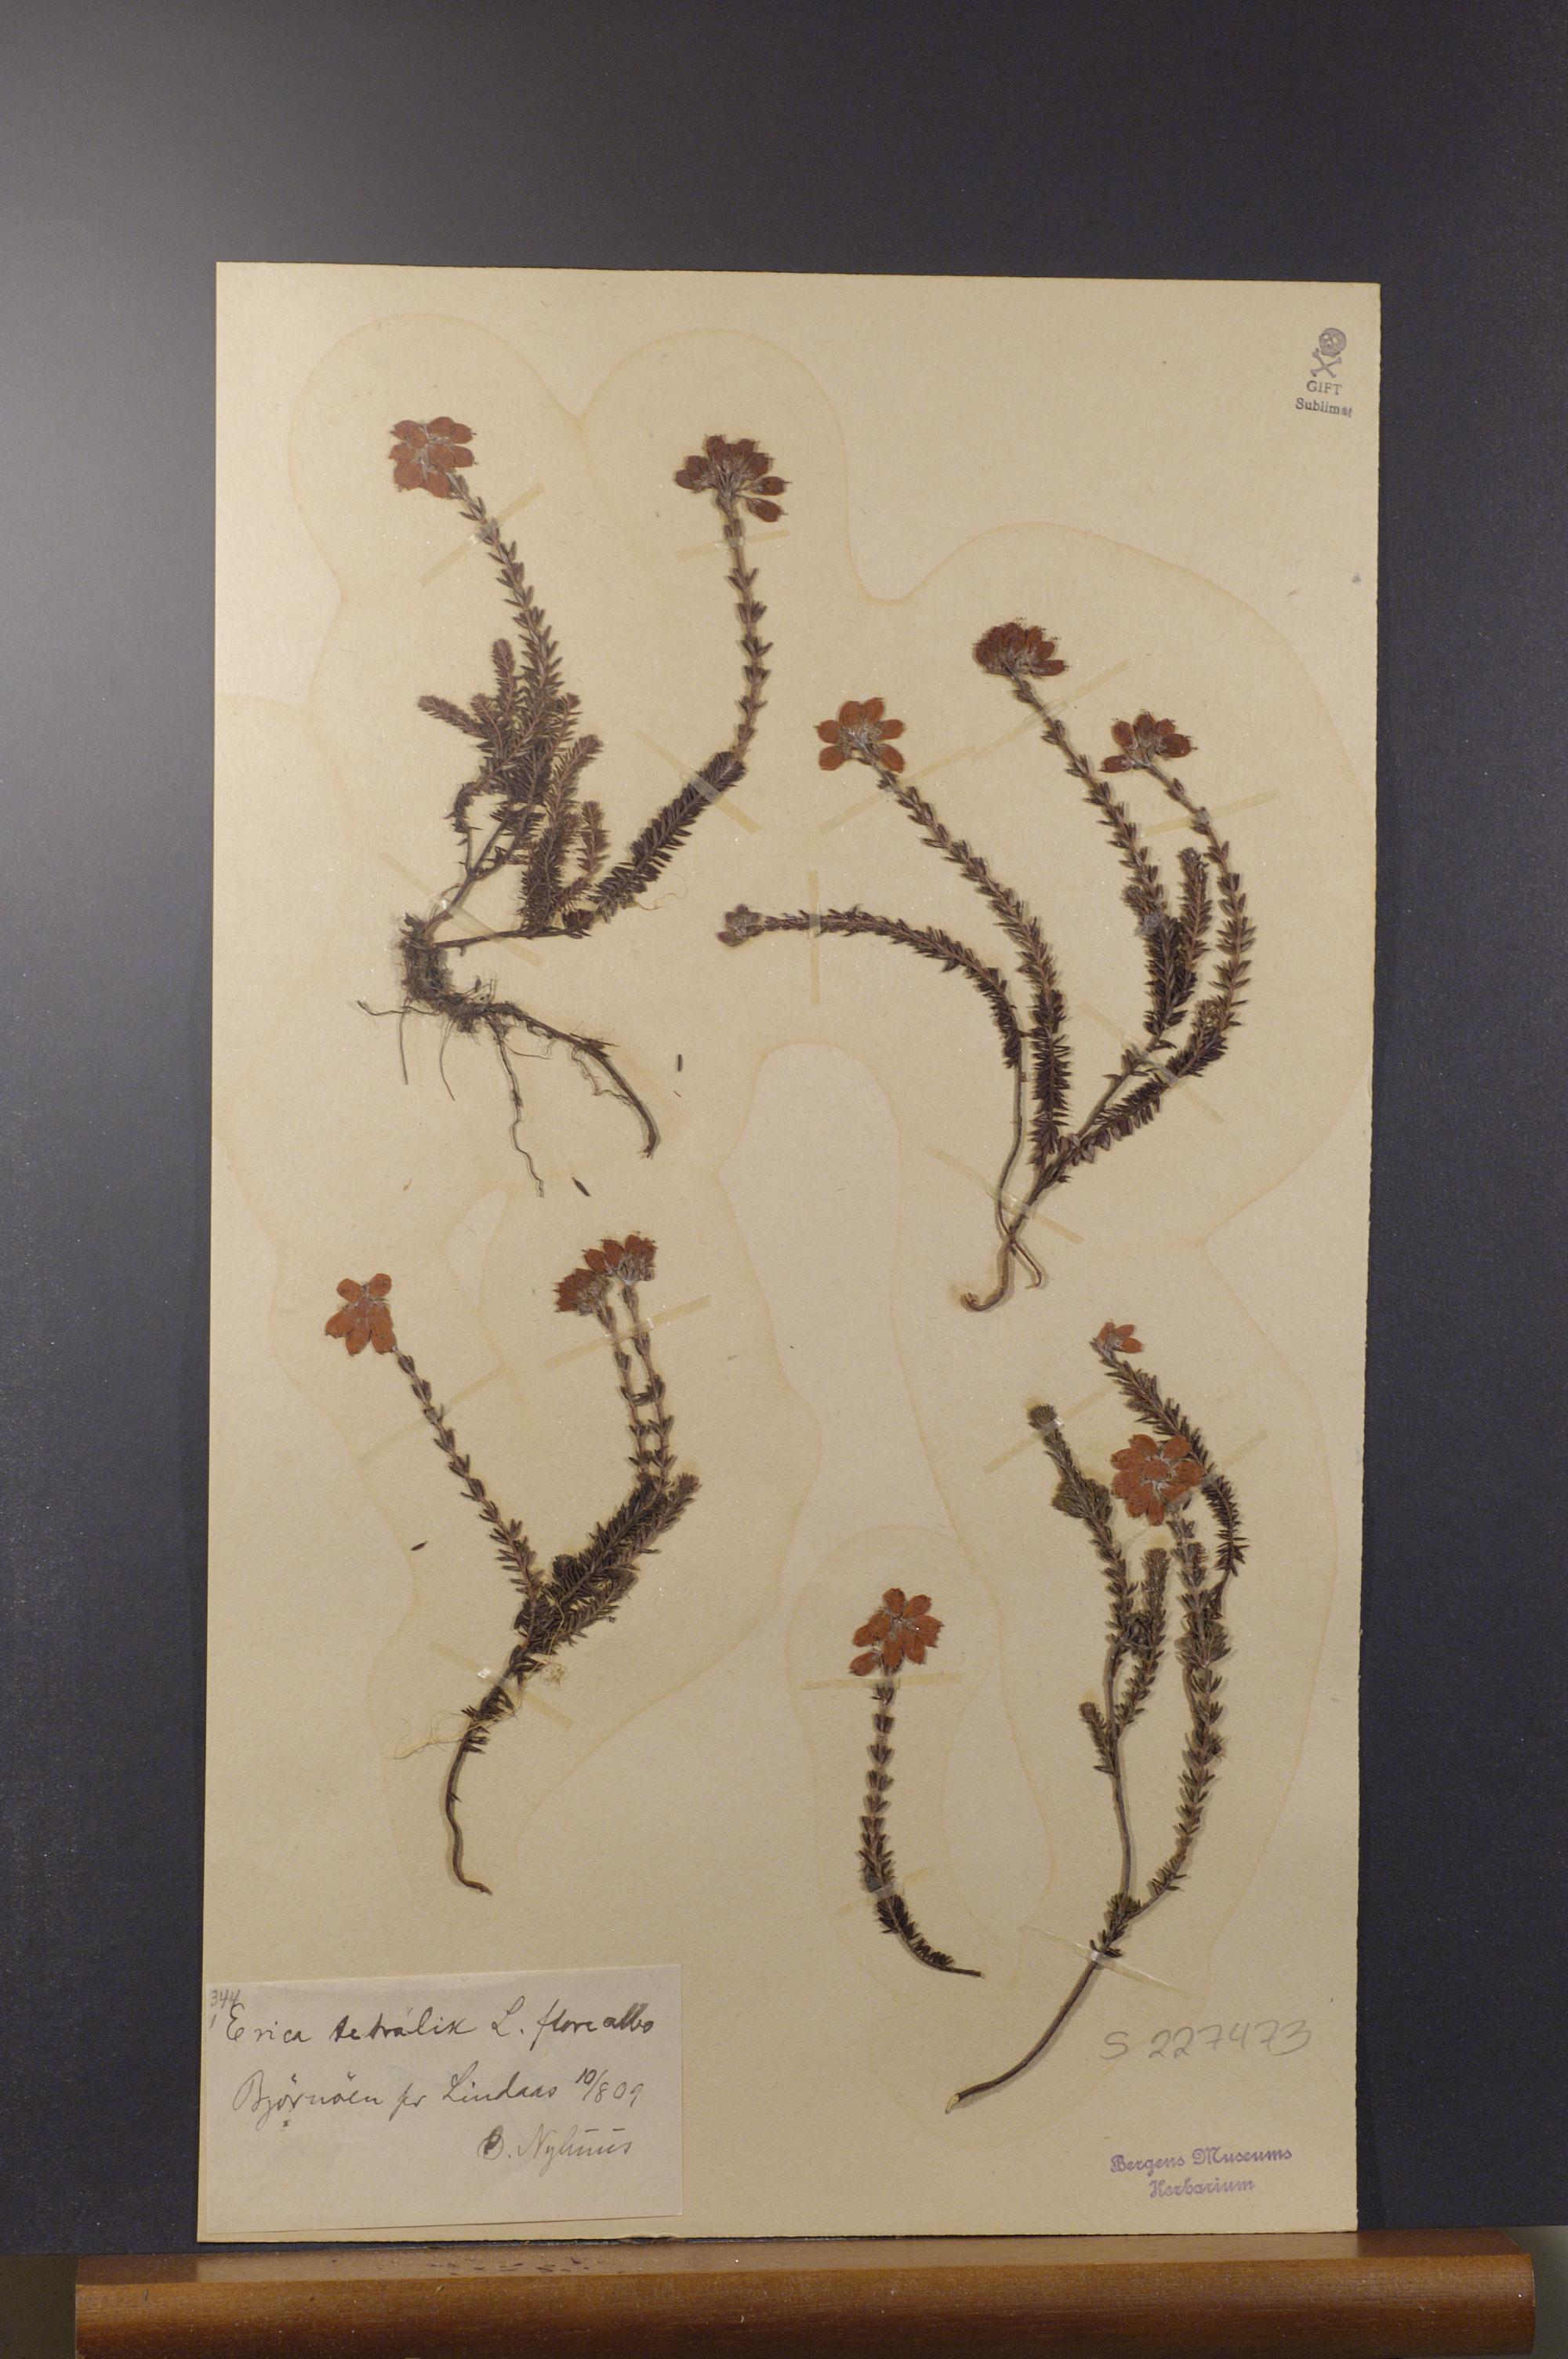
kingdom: Plantae
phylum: Tracheophyta
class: Magnoliopsida
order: Ericales
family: Ericaceae
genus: Erica
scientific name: Erica tetralix
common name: Cross-leaved heath
